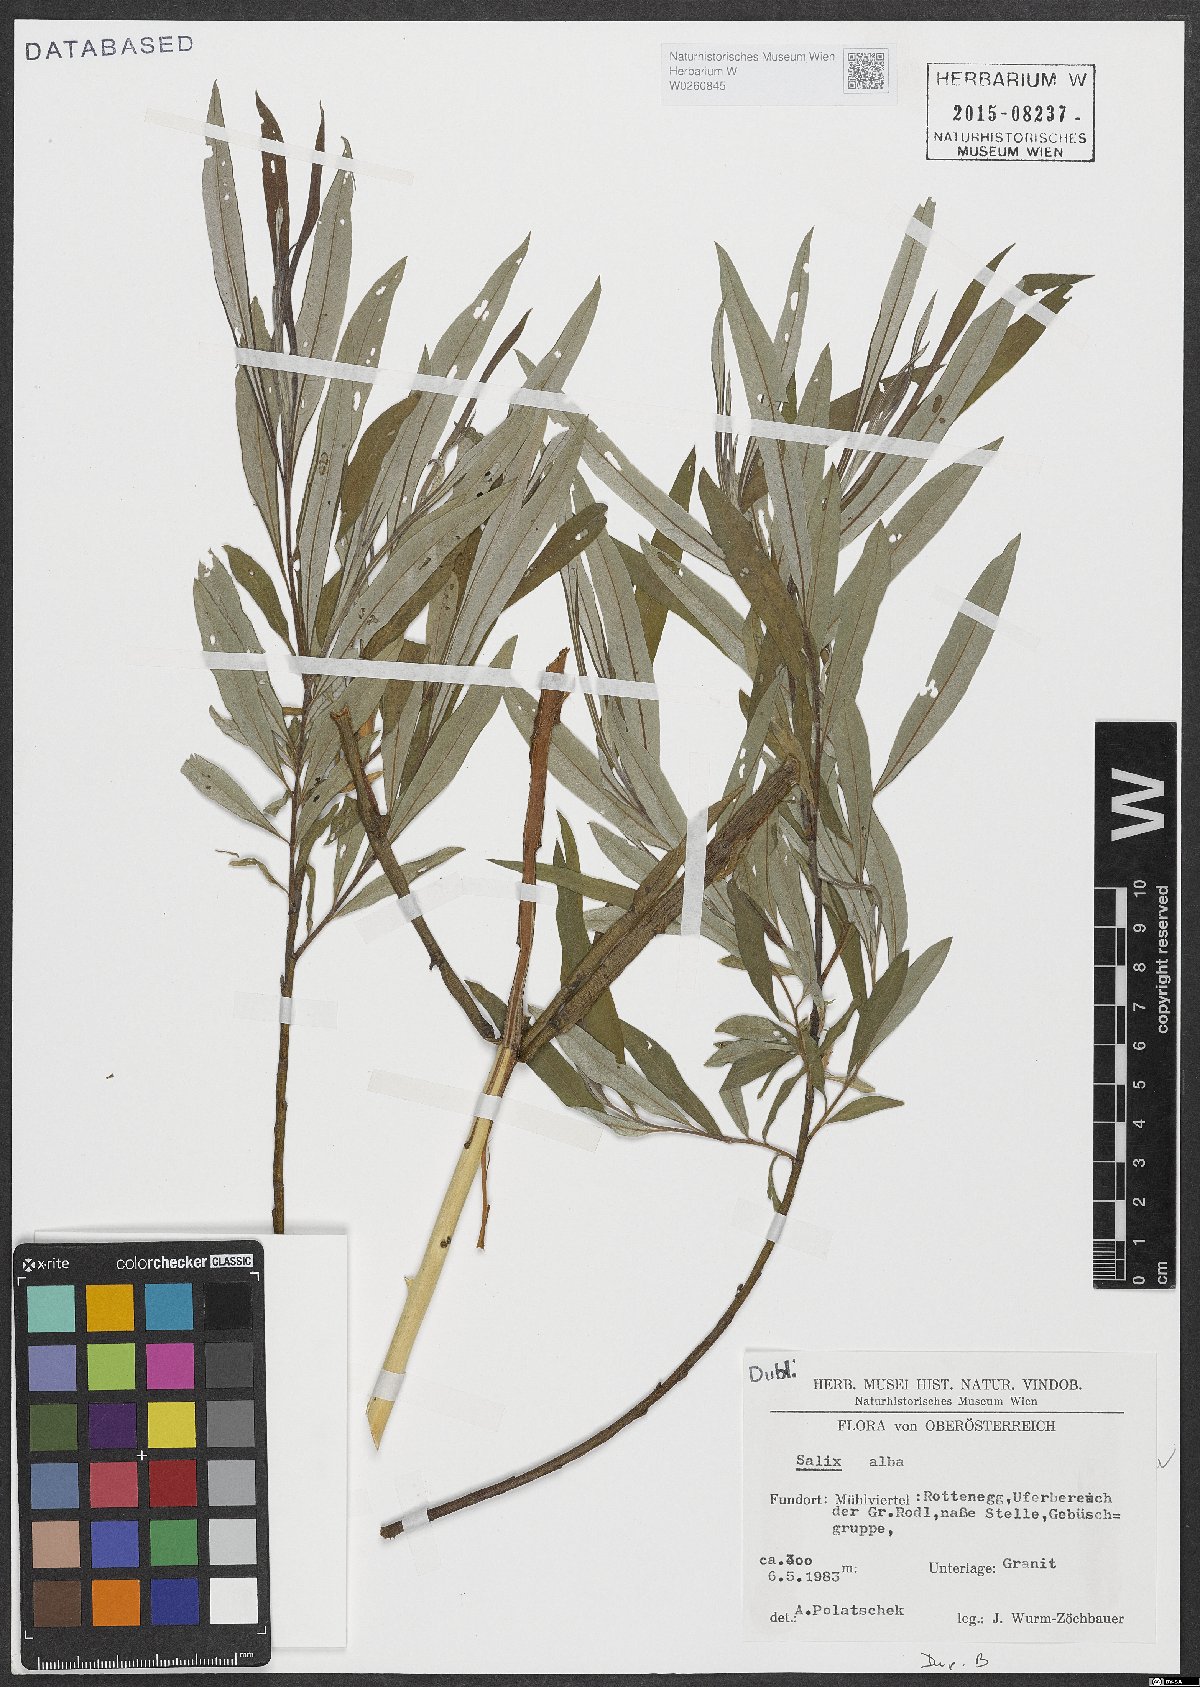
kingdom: Plantae
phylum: Tracheophyta
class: Magnoliopsida
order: Malpighiales
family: Salicaceae
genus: Salix
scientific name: Salix alba
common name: White willow
